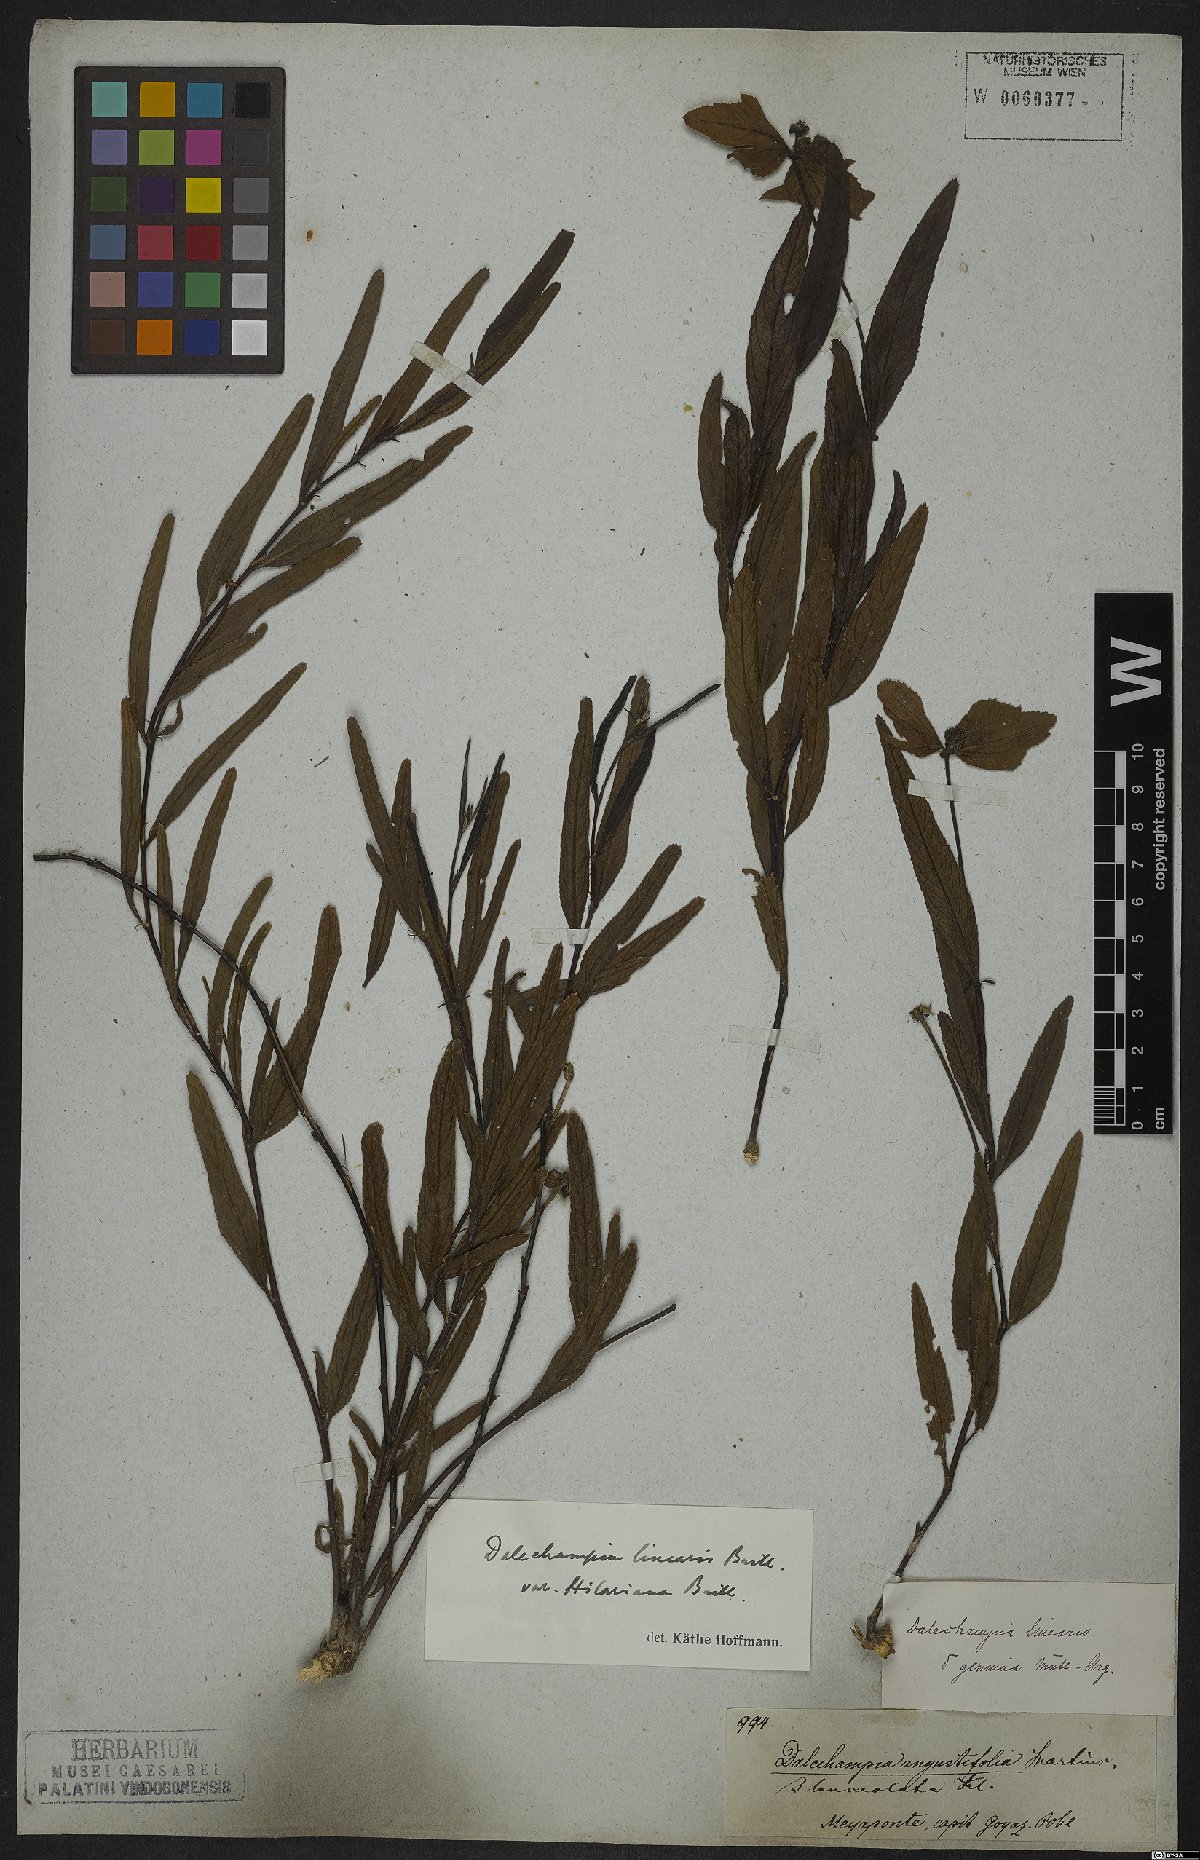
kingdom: Plantae
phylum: Tracheophyta
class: Magnoliopsida
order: Malpighiales
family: Euphorbiaceae
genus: Dalechampia
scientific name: Dalechampia linearis
